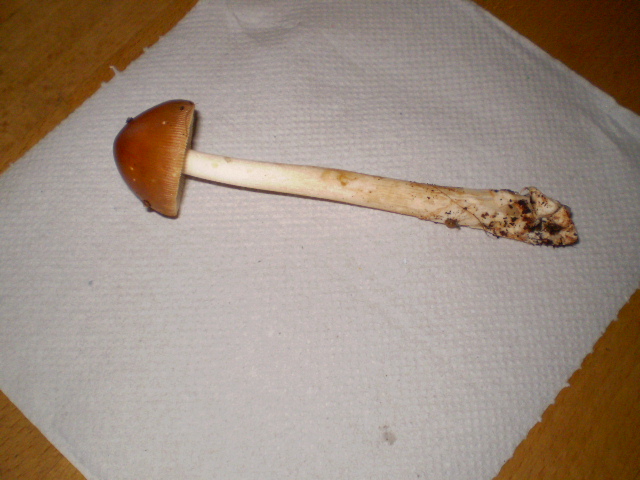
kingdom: Fungi
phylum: Basidiomycota
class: Agaricomycetes
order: Agaricales
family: Amanitaceae
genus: Amanita
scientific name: Amanita fulva
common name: brun kam-fluesvamp
